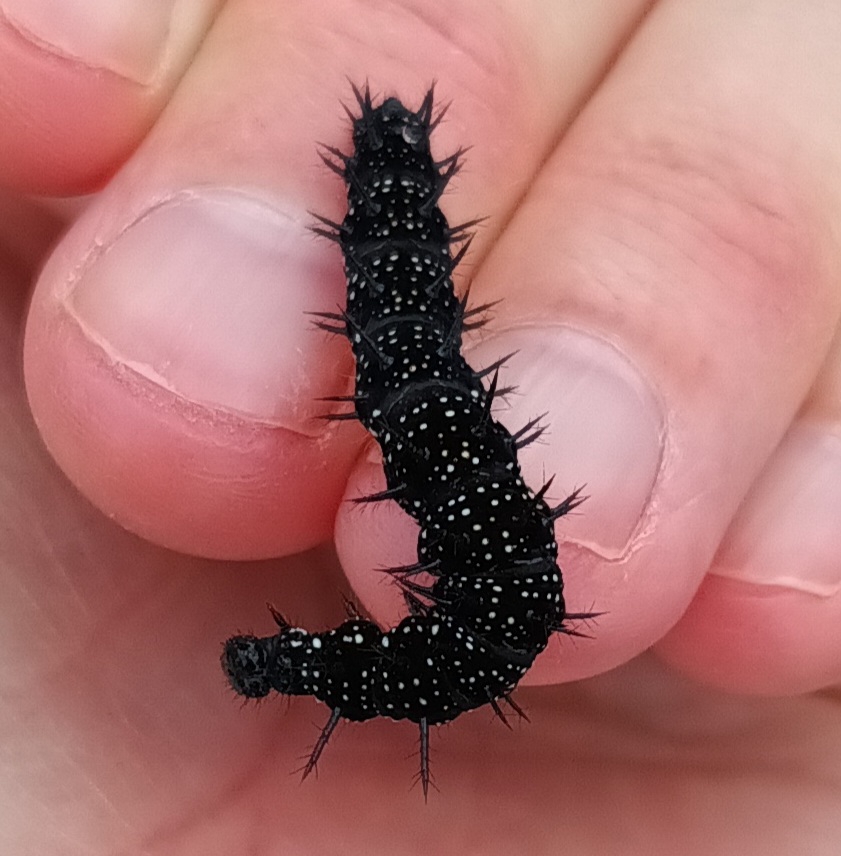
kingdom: Animalia
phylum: Arthropoda
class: Insecta
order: Lepidoptera
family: Nymphalidae
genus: Aglais
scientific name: Aglais io
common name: Dagpåfugleøje
